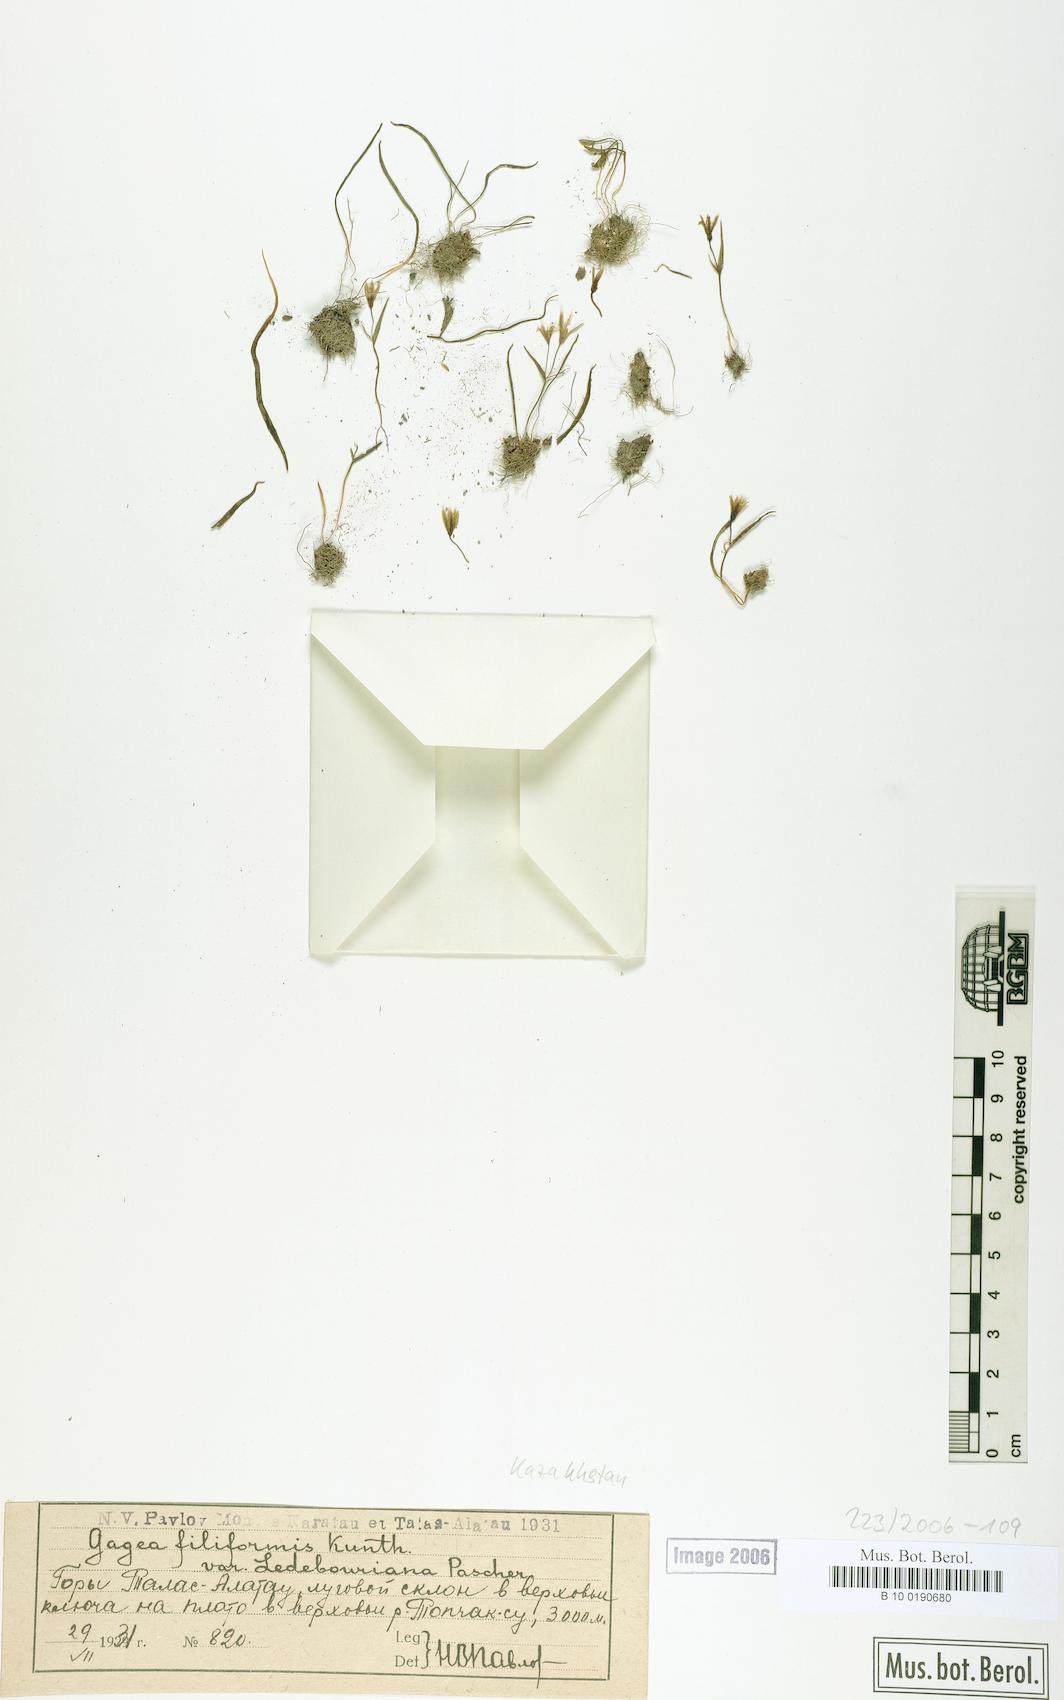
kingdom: Plantae
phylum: Tracheophyta
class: Liliopsida
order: Liliales
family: Liliaceae
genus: Gagea
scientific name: Gagea filiformis
